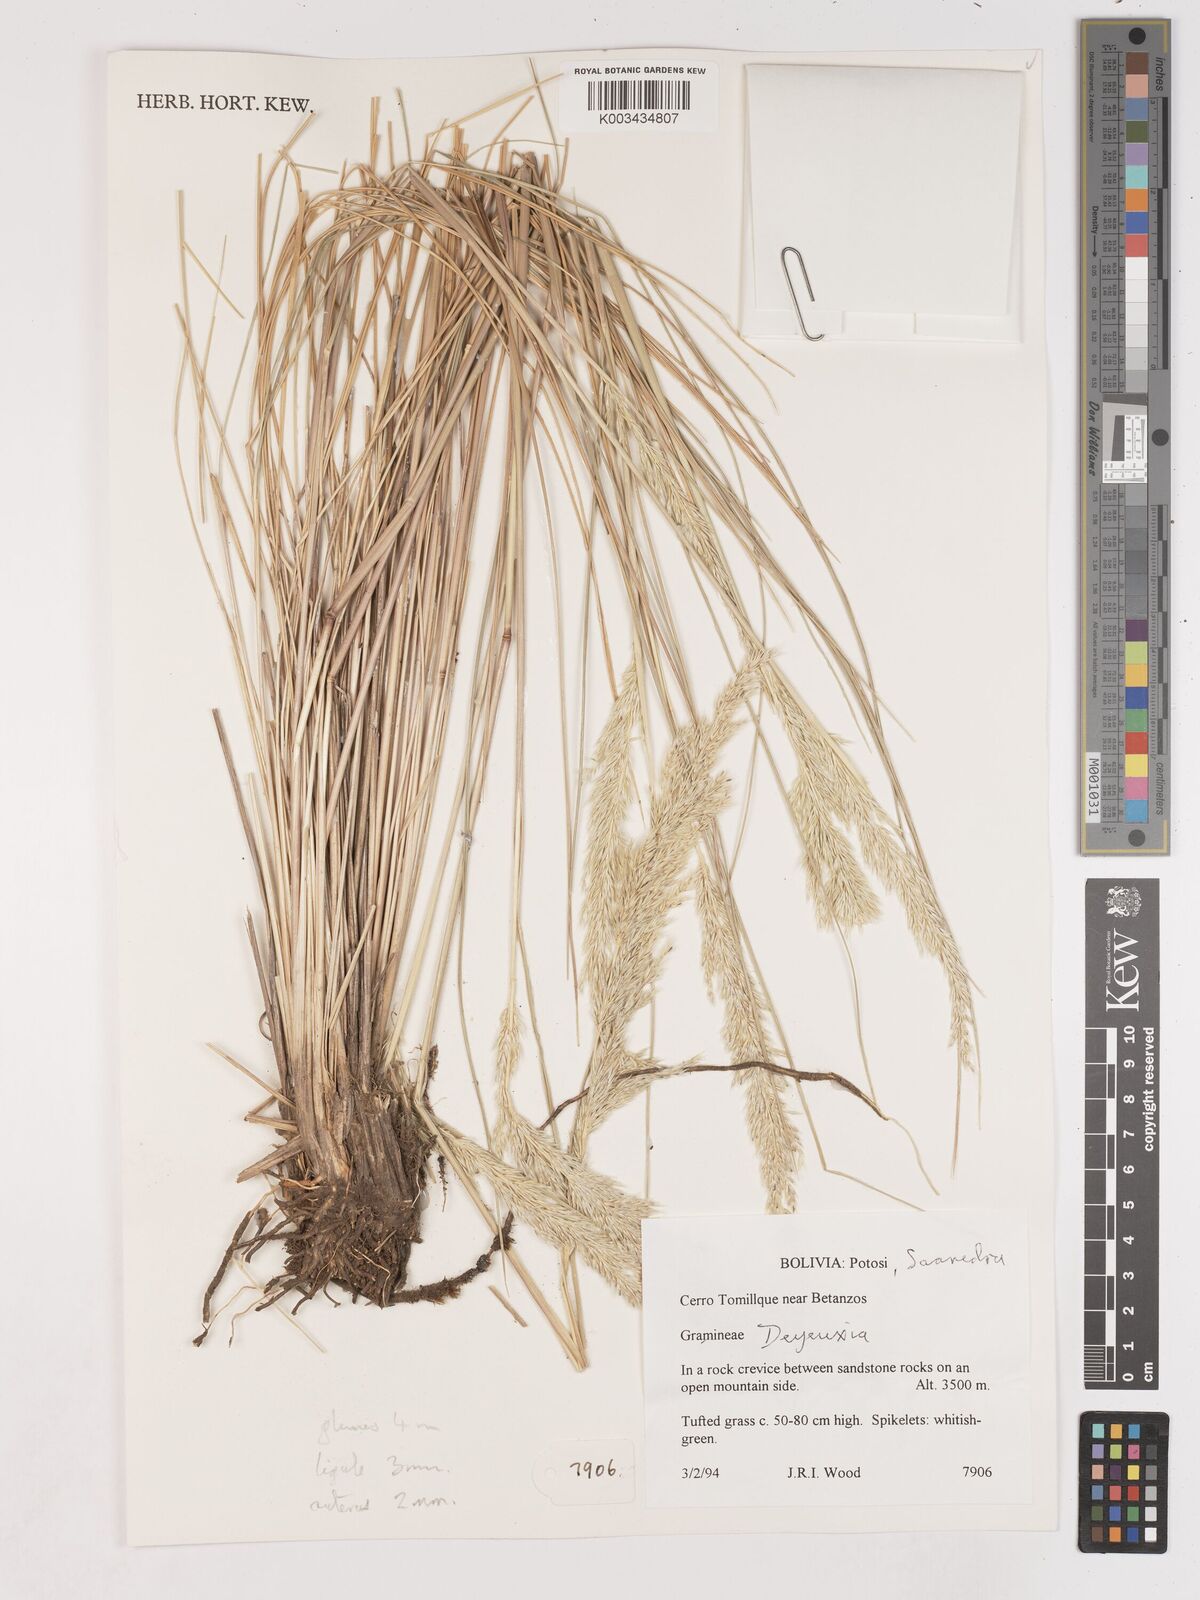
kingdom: Plantae
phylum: Tracheophyta
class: Liliopsida
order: Poales
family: Poaceae
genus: Cinnagrostis
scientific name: Cinnagrostis orbignyana
